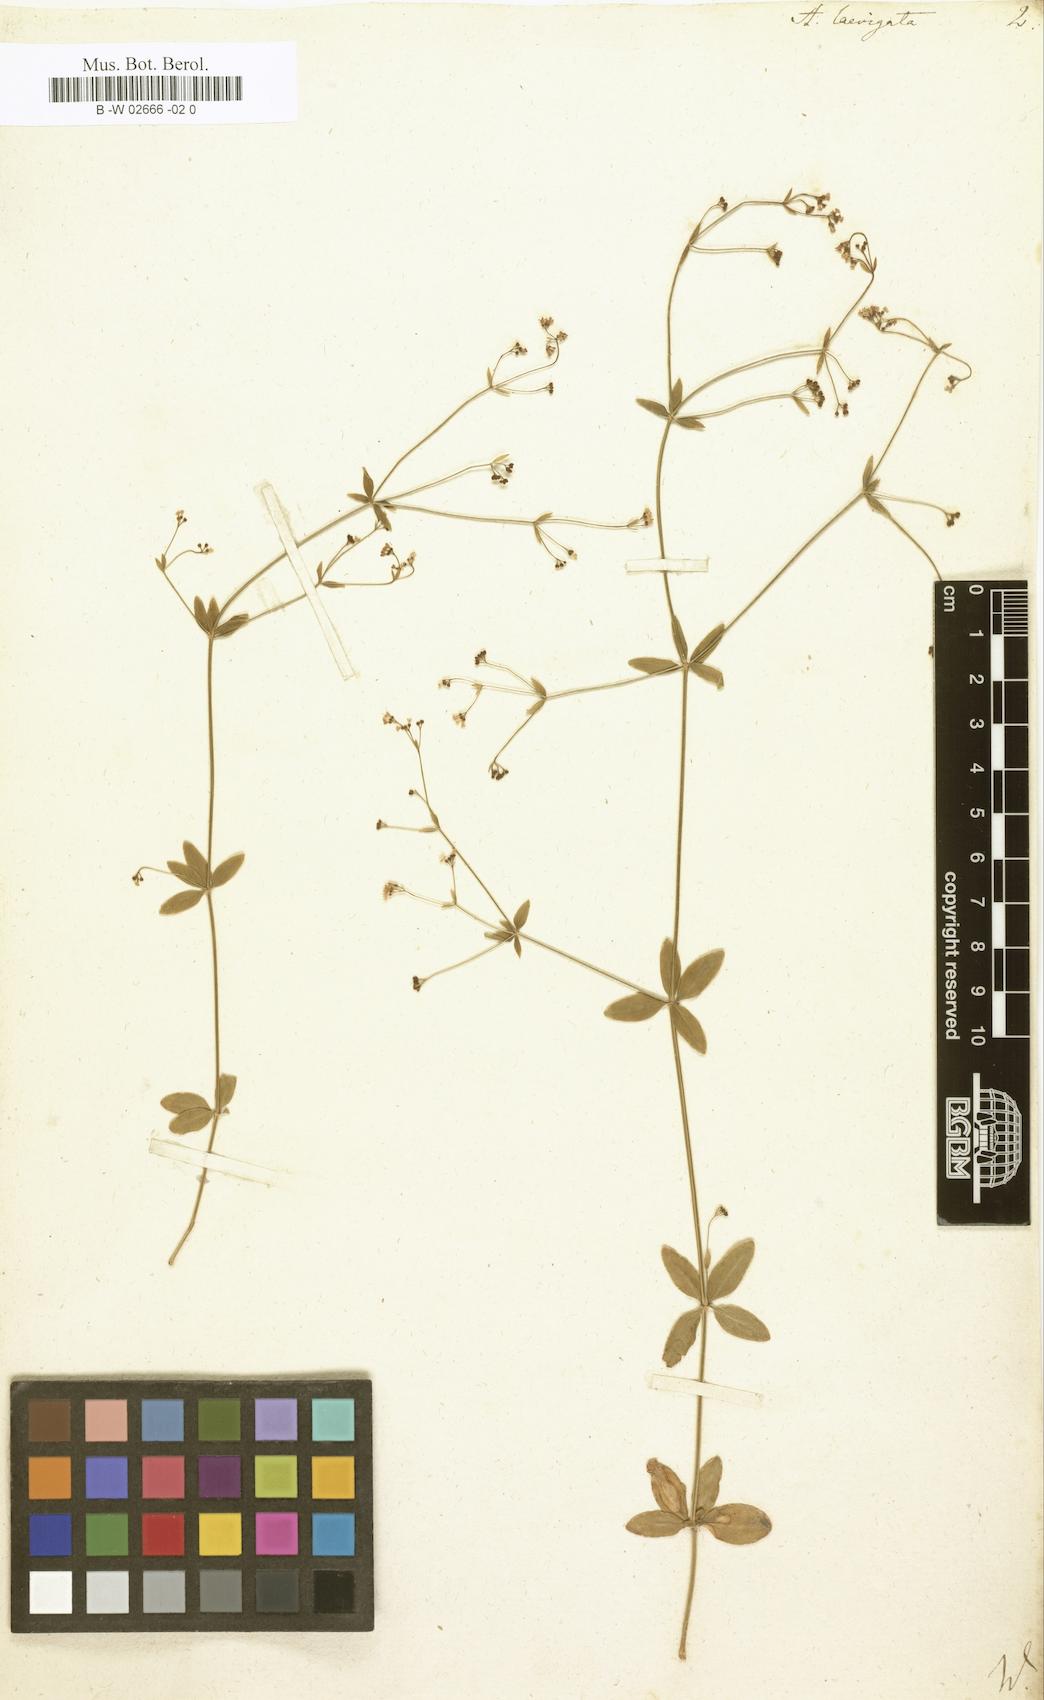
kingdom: Plantae
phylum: Tracheophyta
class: Magnoliopsida
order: Gentianales
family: Rubiaceae
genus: Asperula
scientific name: Asperula laevigata
